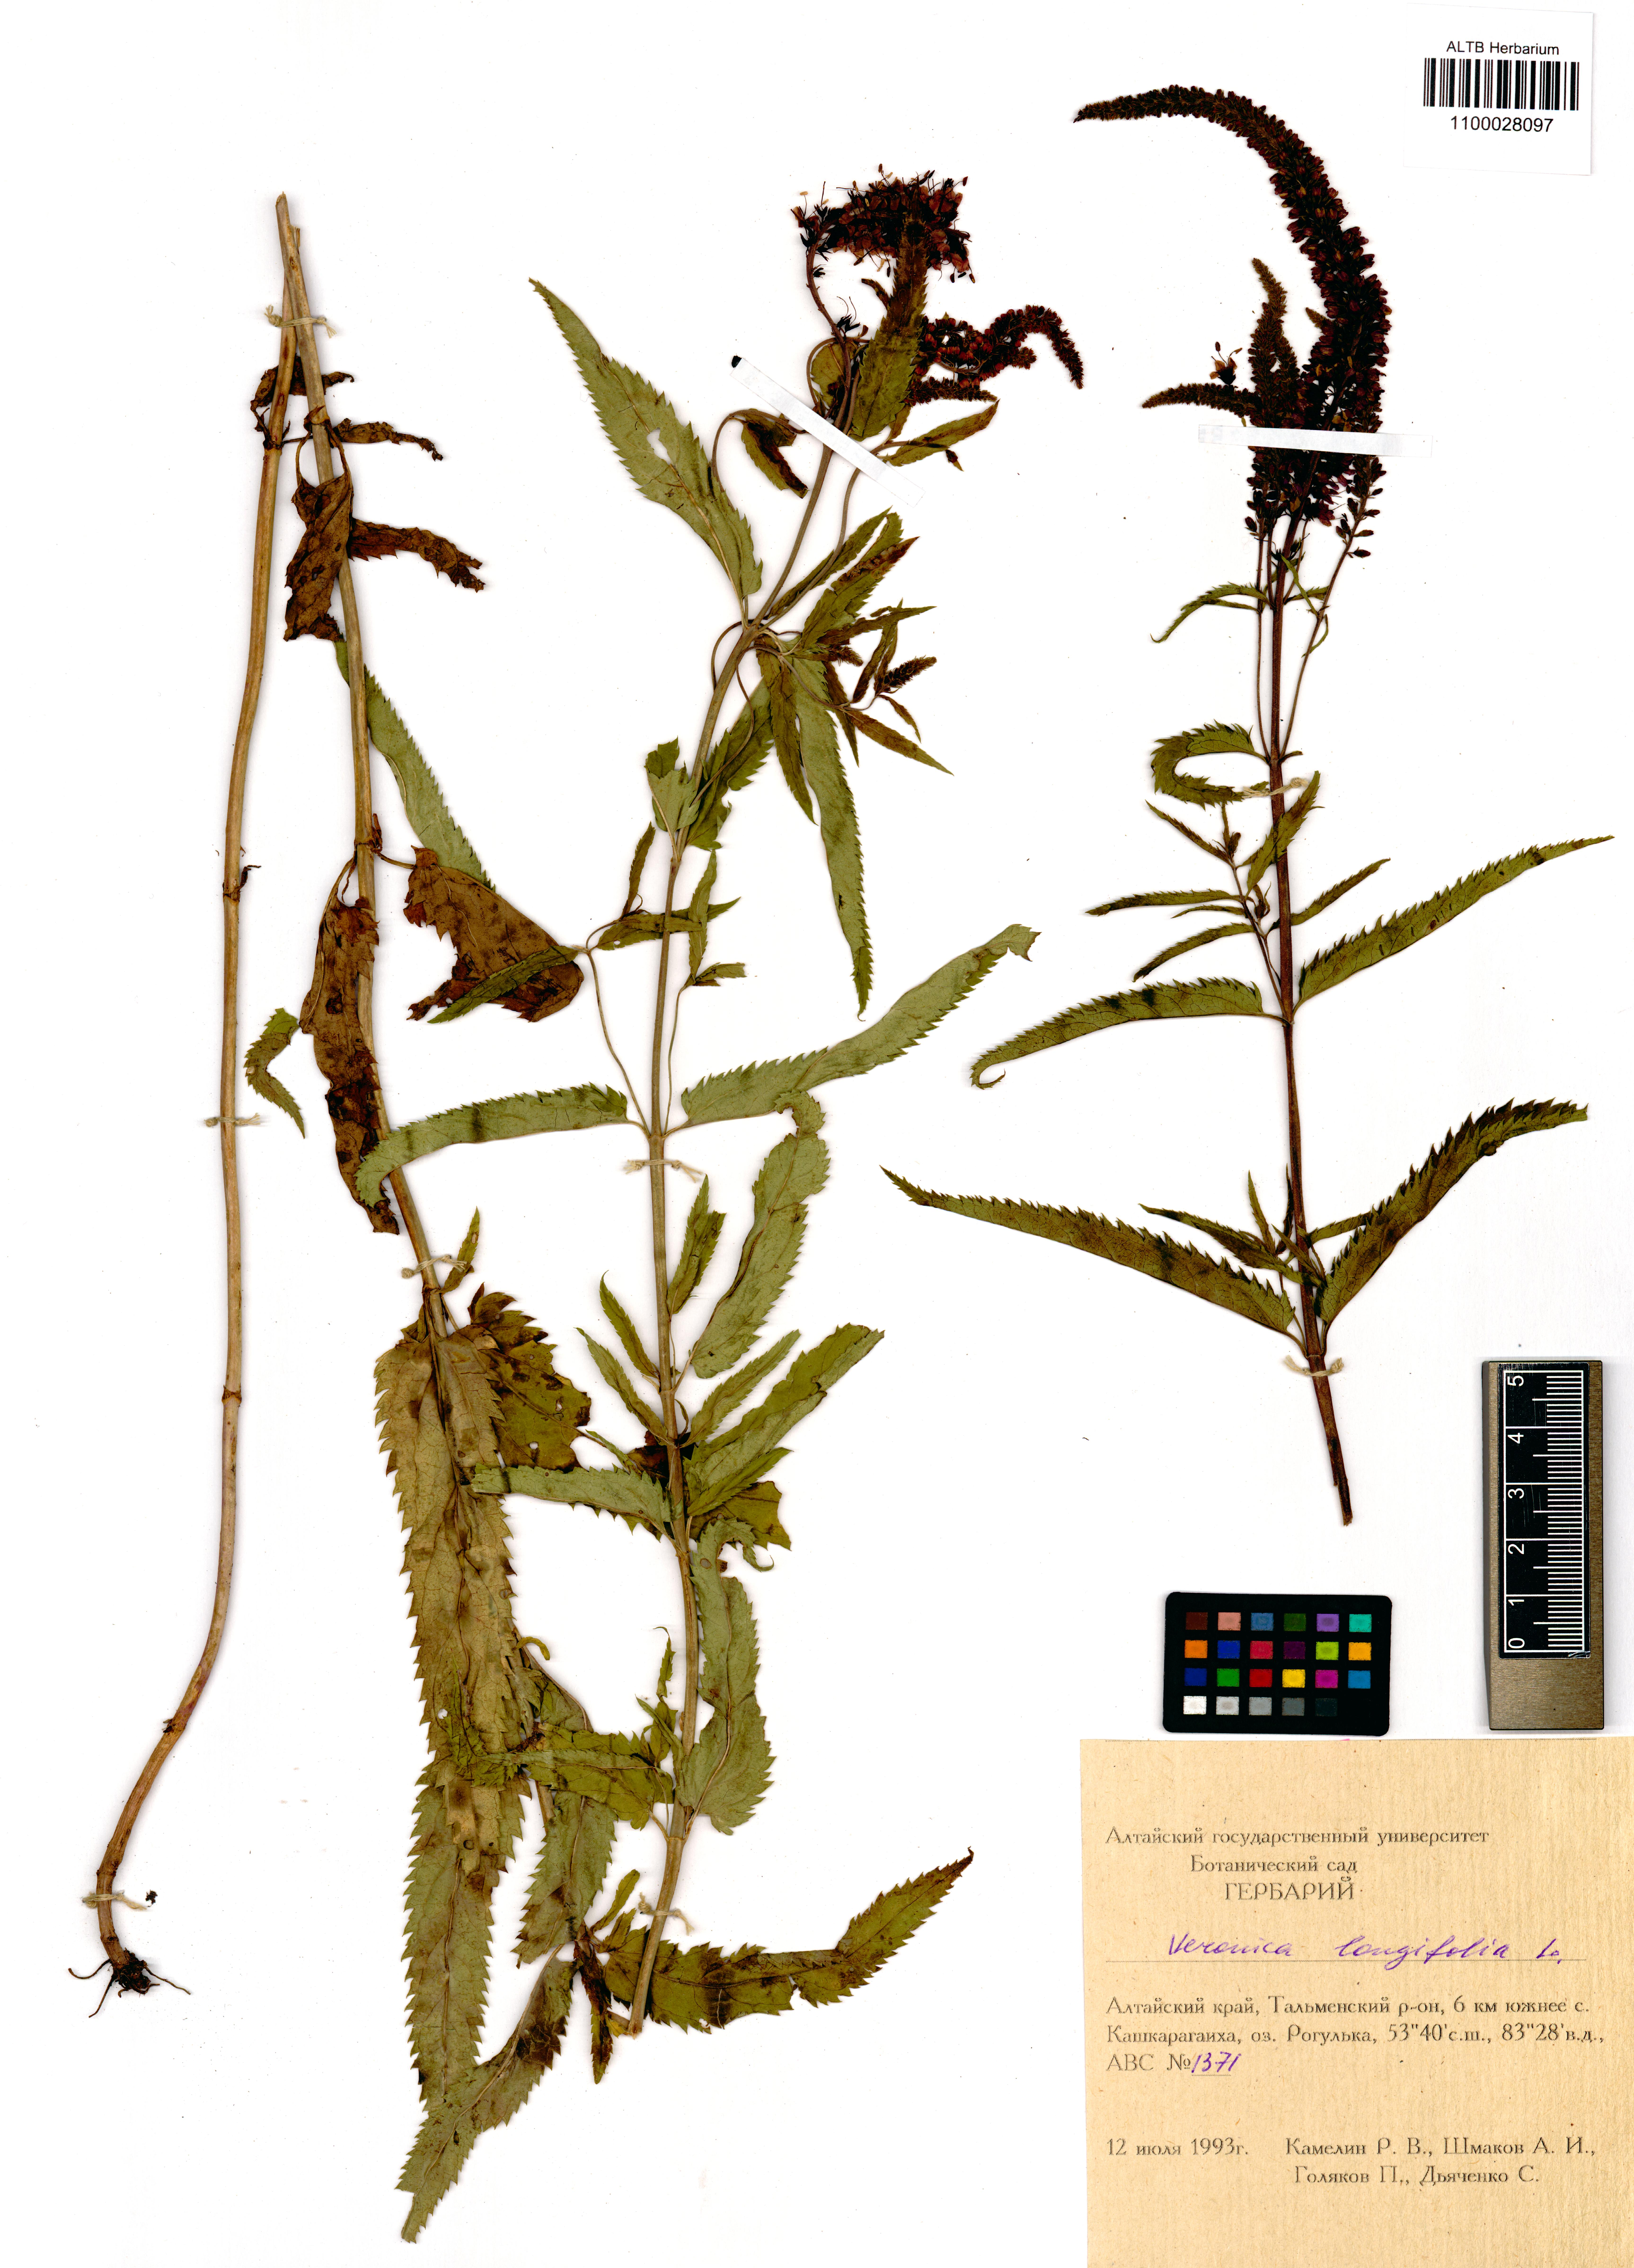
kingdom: Plantae
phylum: Tracheophyta
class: Magnoliopsida
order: Lamiales
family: Plantaginaceae
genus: Veronica
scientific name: Veronica longifolia
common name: Garden speedwell
